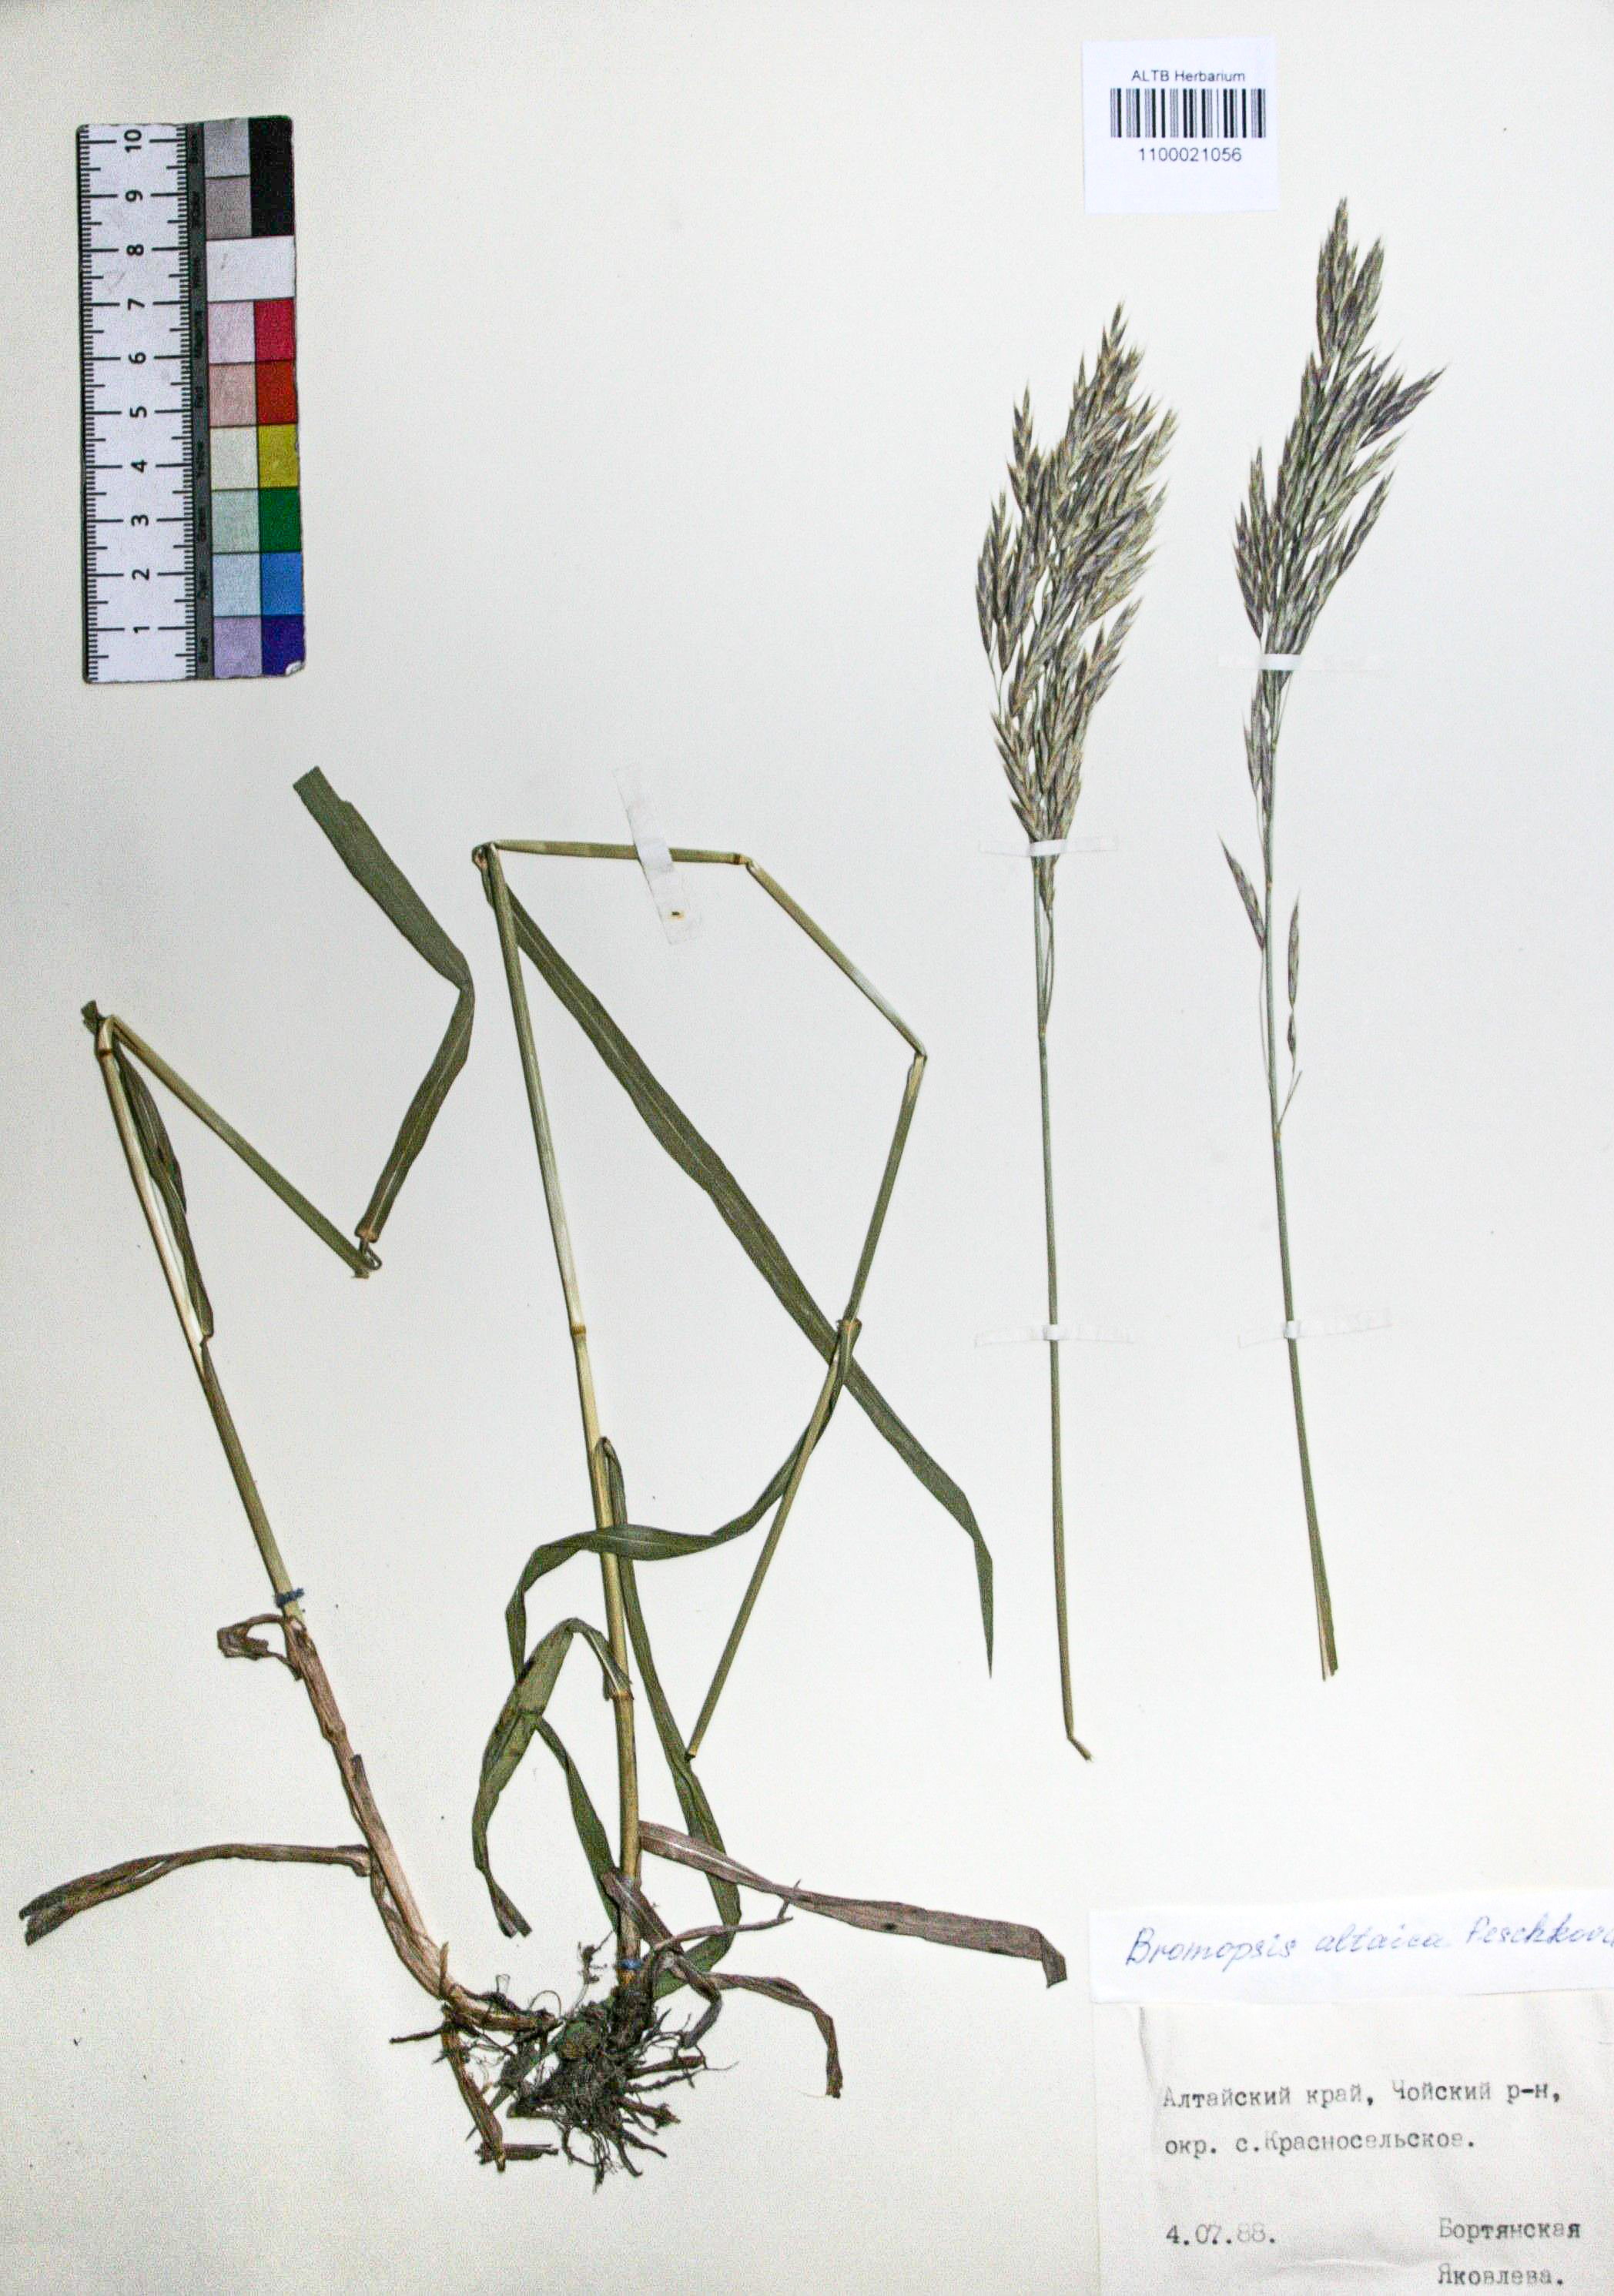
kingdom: Plantae
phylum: Tracheophyta
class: Liliopsida
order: Poales
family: Poaceae
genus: Bromus
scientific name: Bromus pumpellianus
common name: Pumpelly's brome
